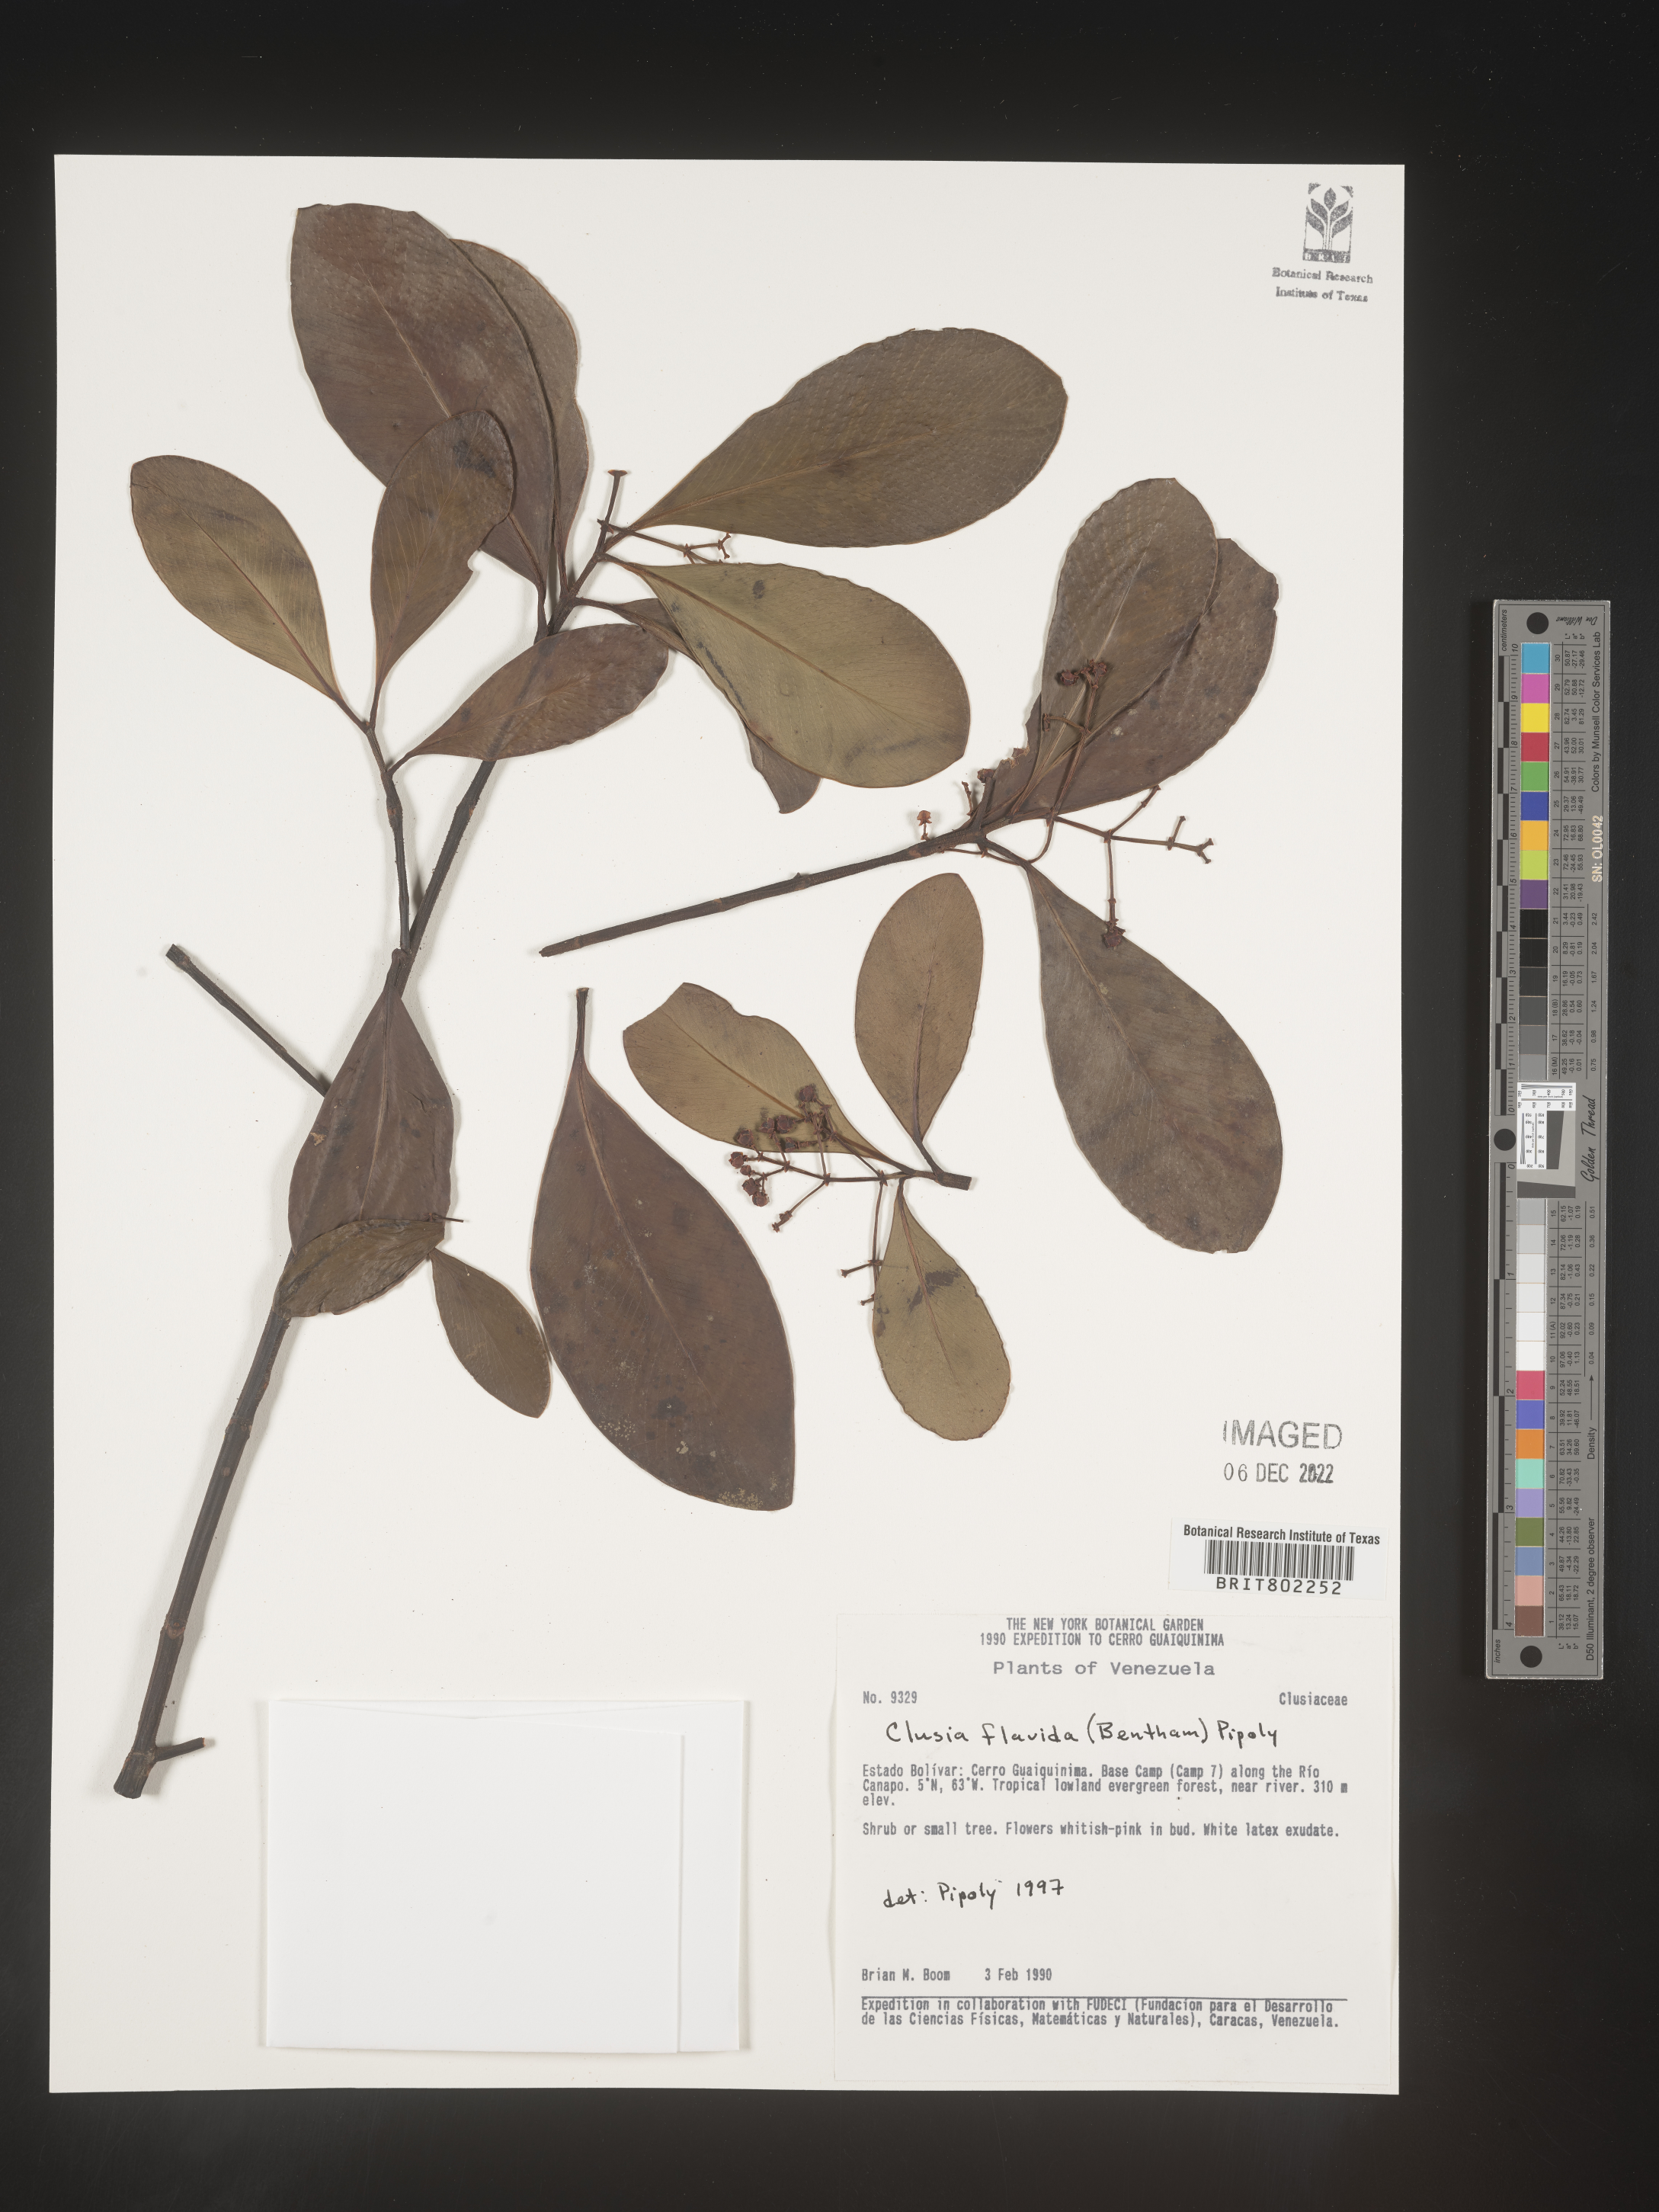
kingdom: Plantae
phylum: Tracheophyta
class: Magnoliopsida
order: Malpighiales
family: Clusiaceae
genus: Clusia
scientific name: Clusia flavida
